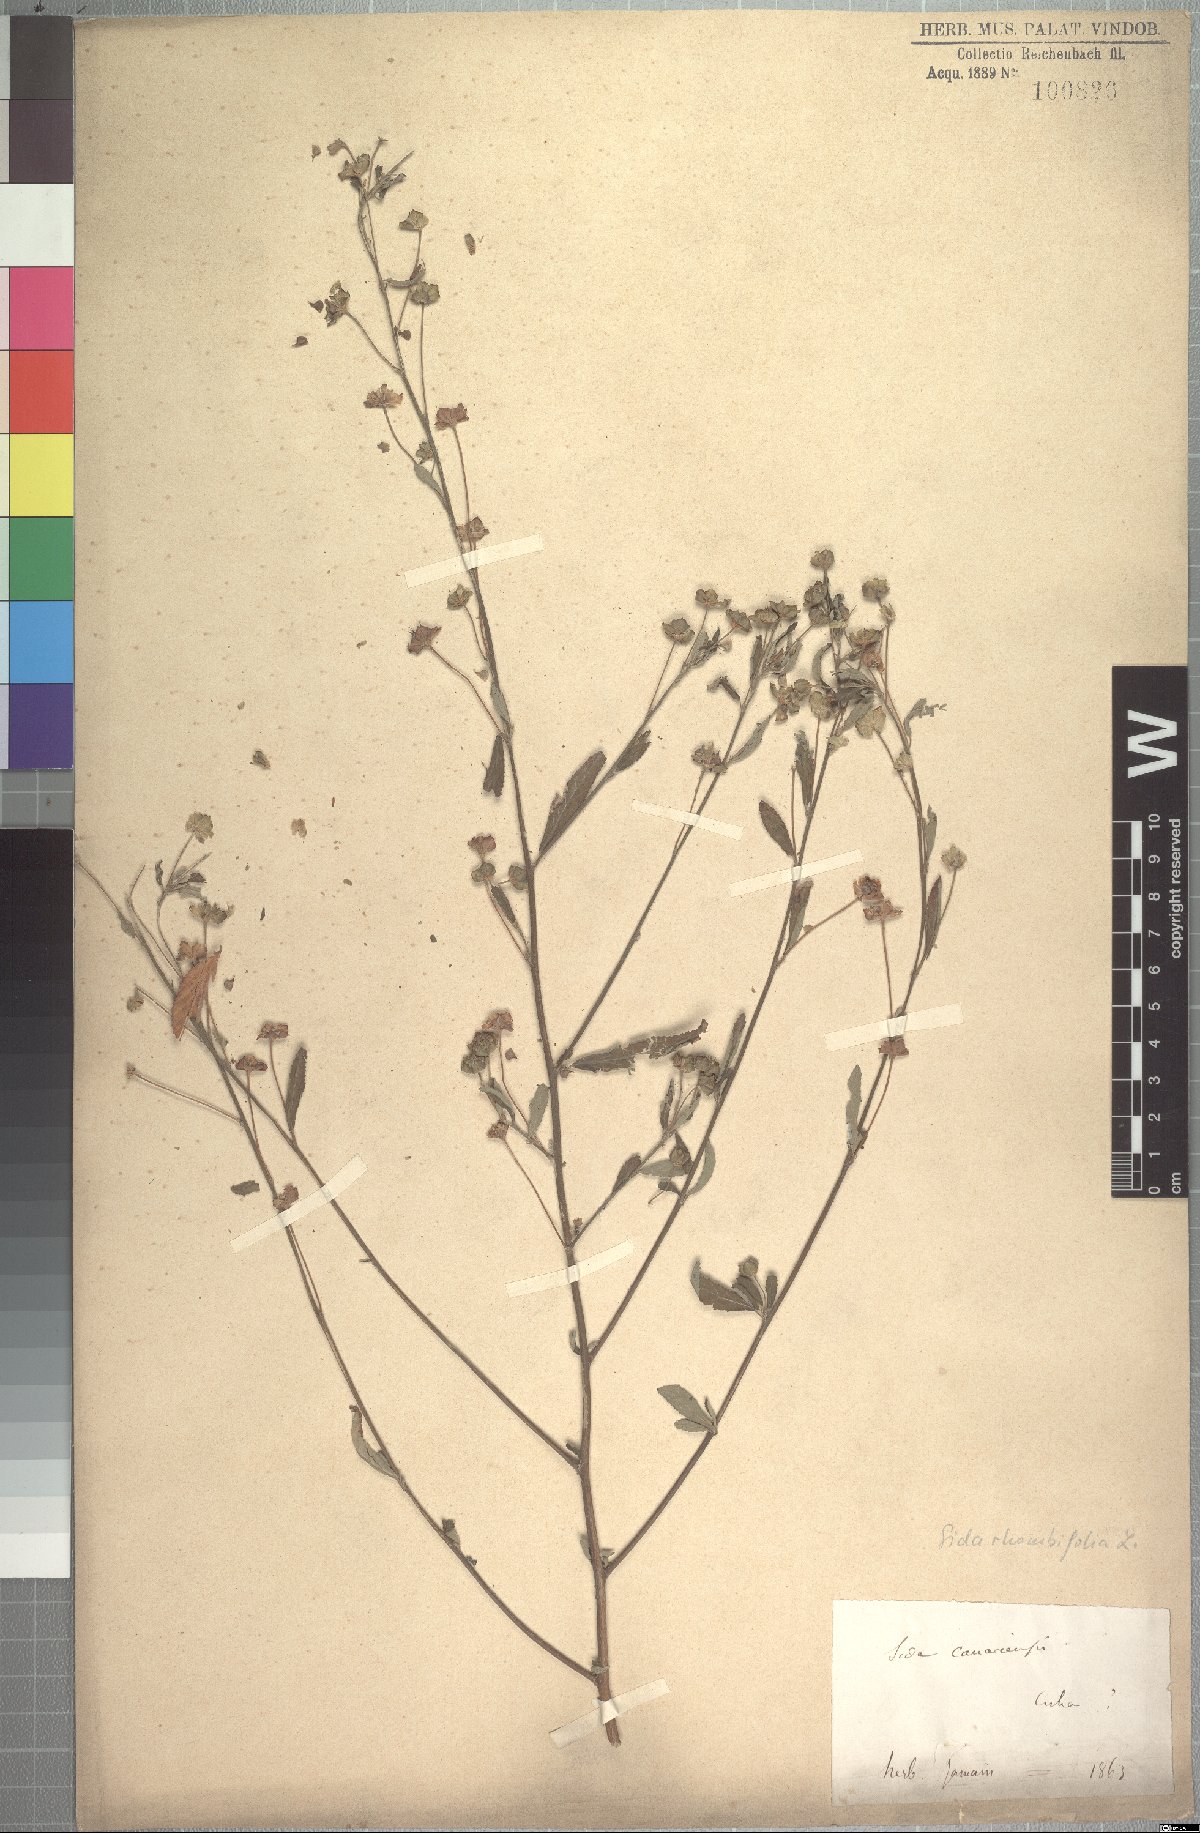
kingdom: Plantae
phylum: Tracheophyta
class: Magnoliopsida
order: Malvales
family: Malvaceae
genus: Sida
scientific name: Sida rhombifolia
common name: Queensland-hemp
